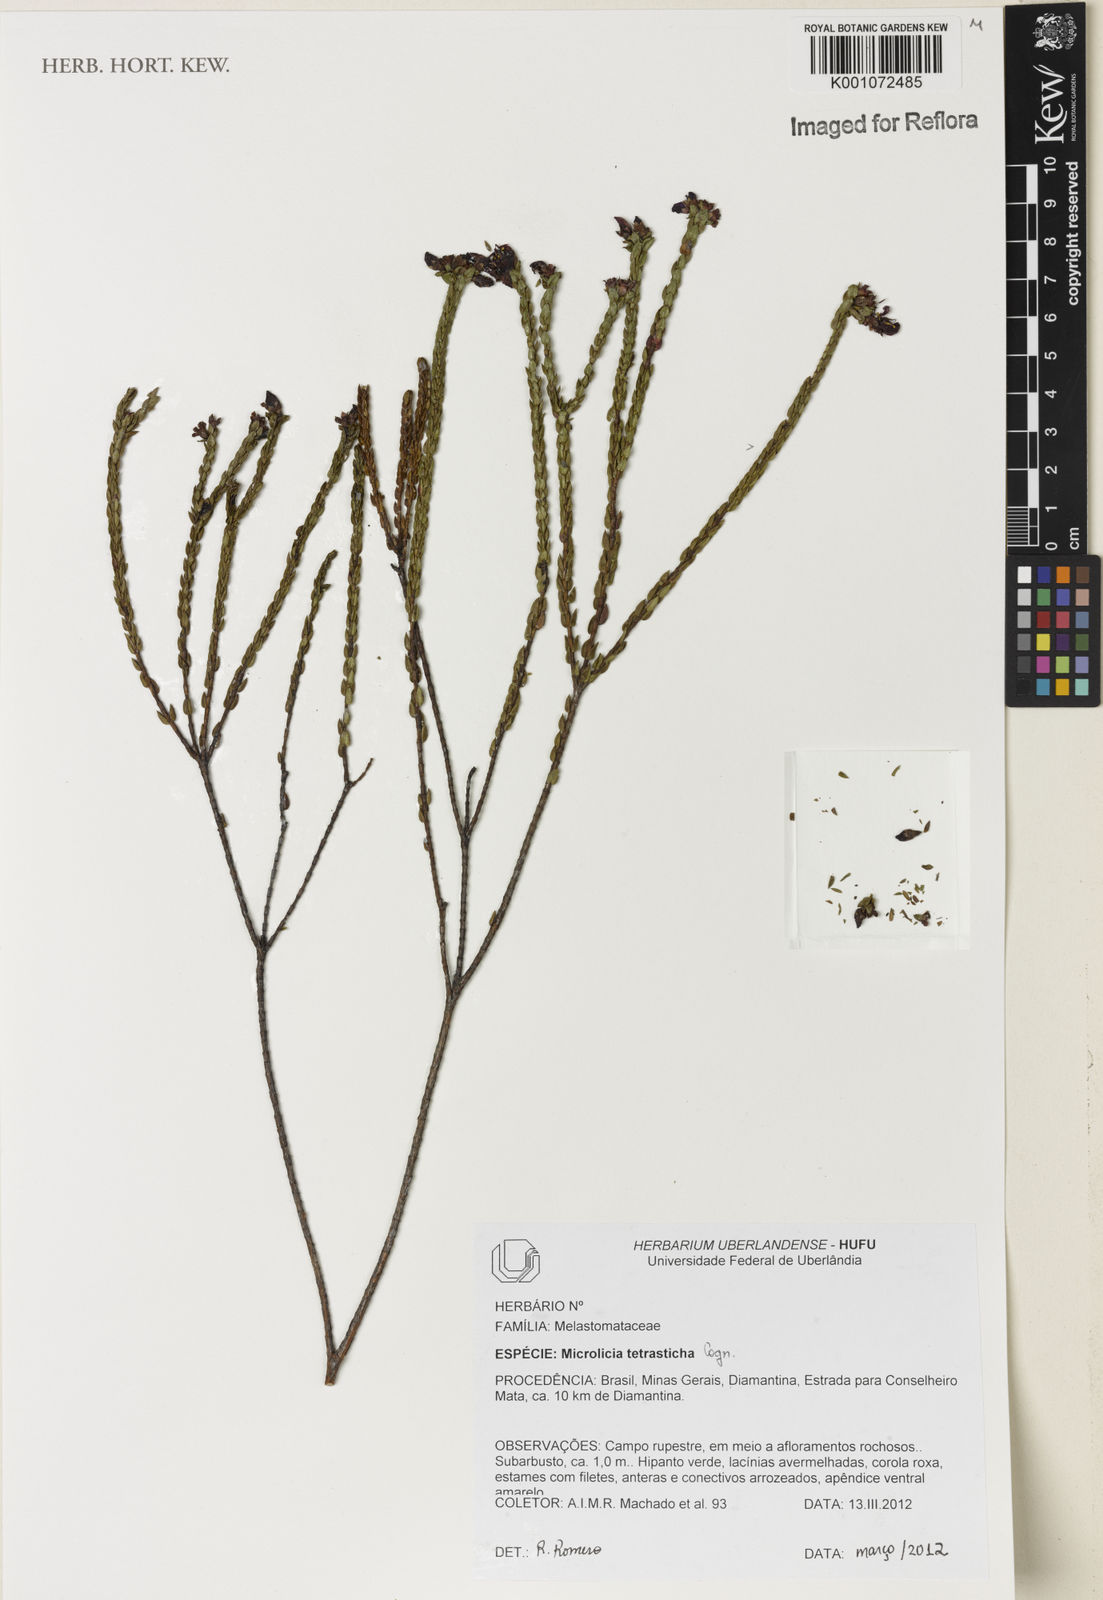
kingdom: Plantae
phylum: Tracheophyta
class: Magnoliopsida
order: Myrtales
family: Melastomataceae
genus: Microlicia
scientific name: Microlicia tetrasticha
